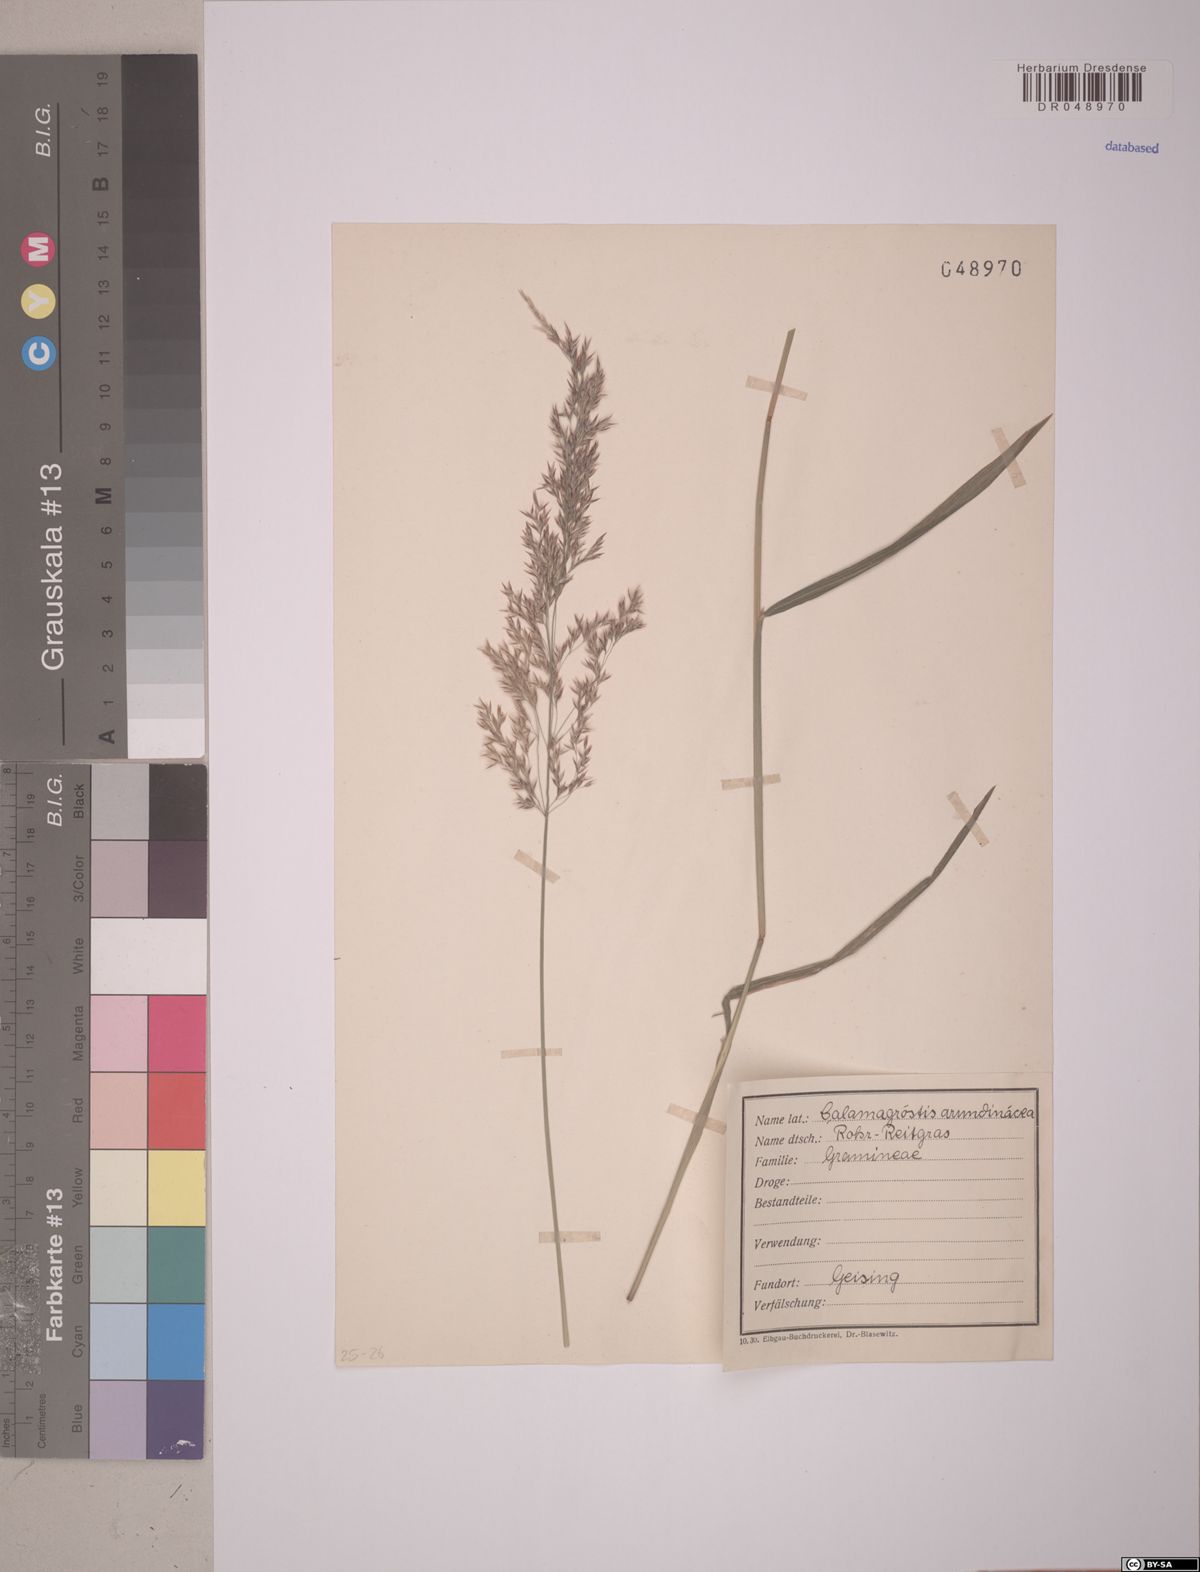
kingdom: Plantae
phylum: Tracheophyta
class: Liliopsida
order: Poales
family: Poaceae
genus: Calamagrostis
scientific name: Calamagrostis arundinacea
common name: Metskastik
